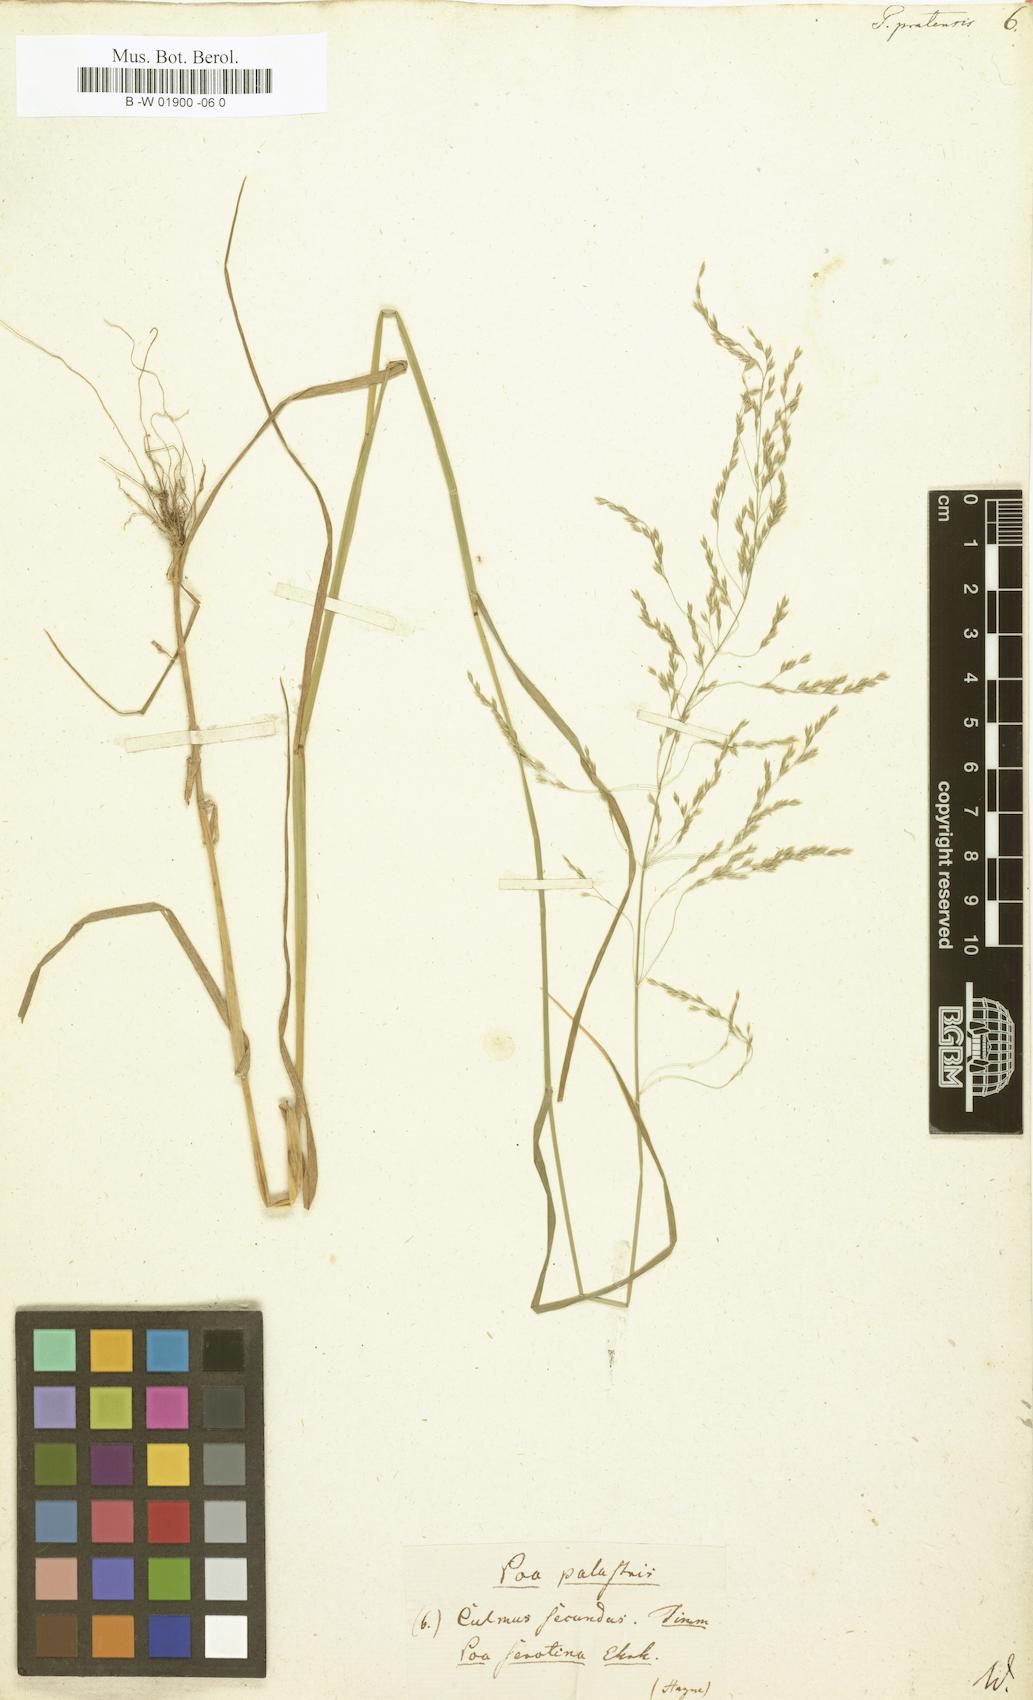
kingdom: Plantae
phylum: Tracheophyta
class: Liliopsida
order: Poales
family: Poaceae
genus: Poa
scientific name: Poa pratensis
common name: Kentucky bluegrass
